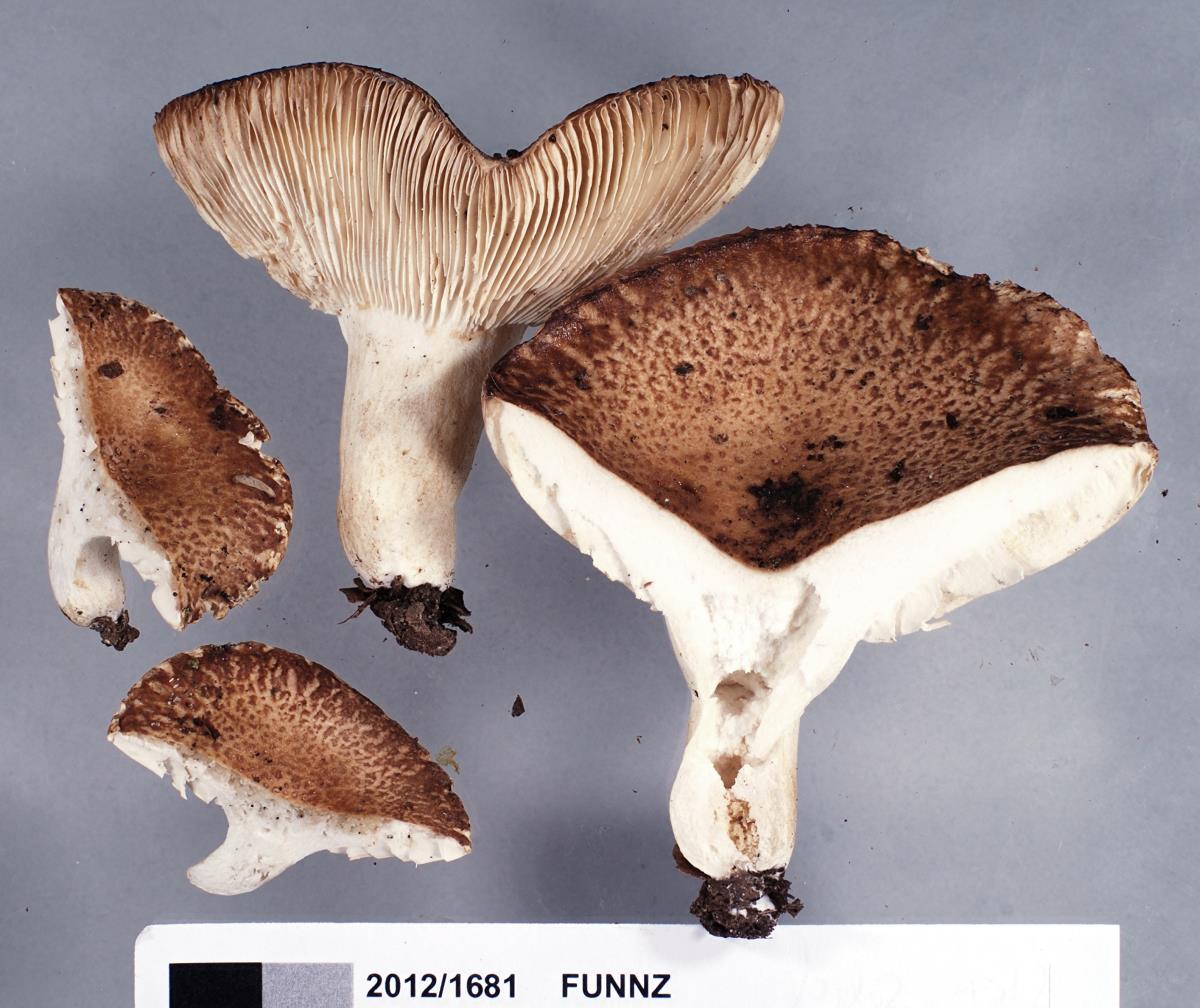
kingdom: Fungi
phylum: Basidiomycota
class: Agaricomycetes
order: Russulales
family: Russulaceae
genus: Russula
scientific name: Russula
